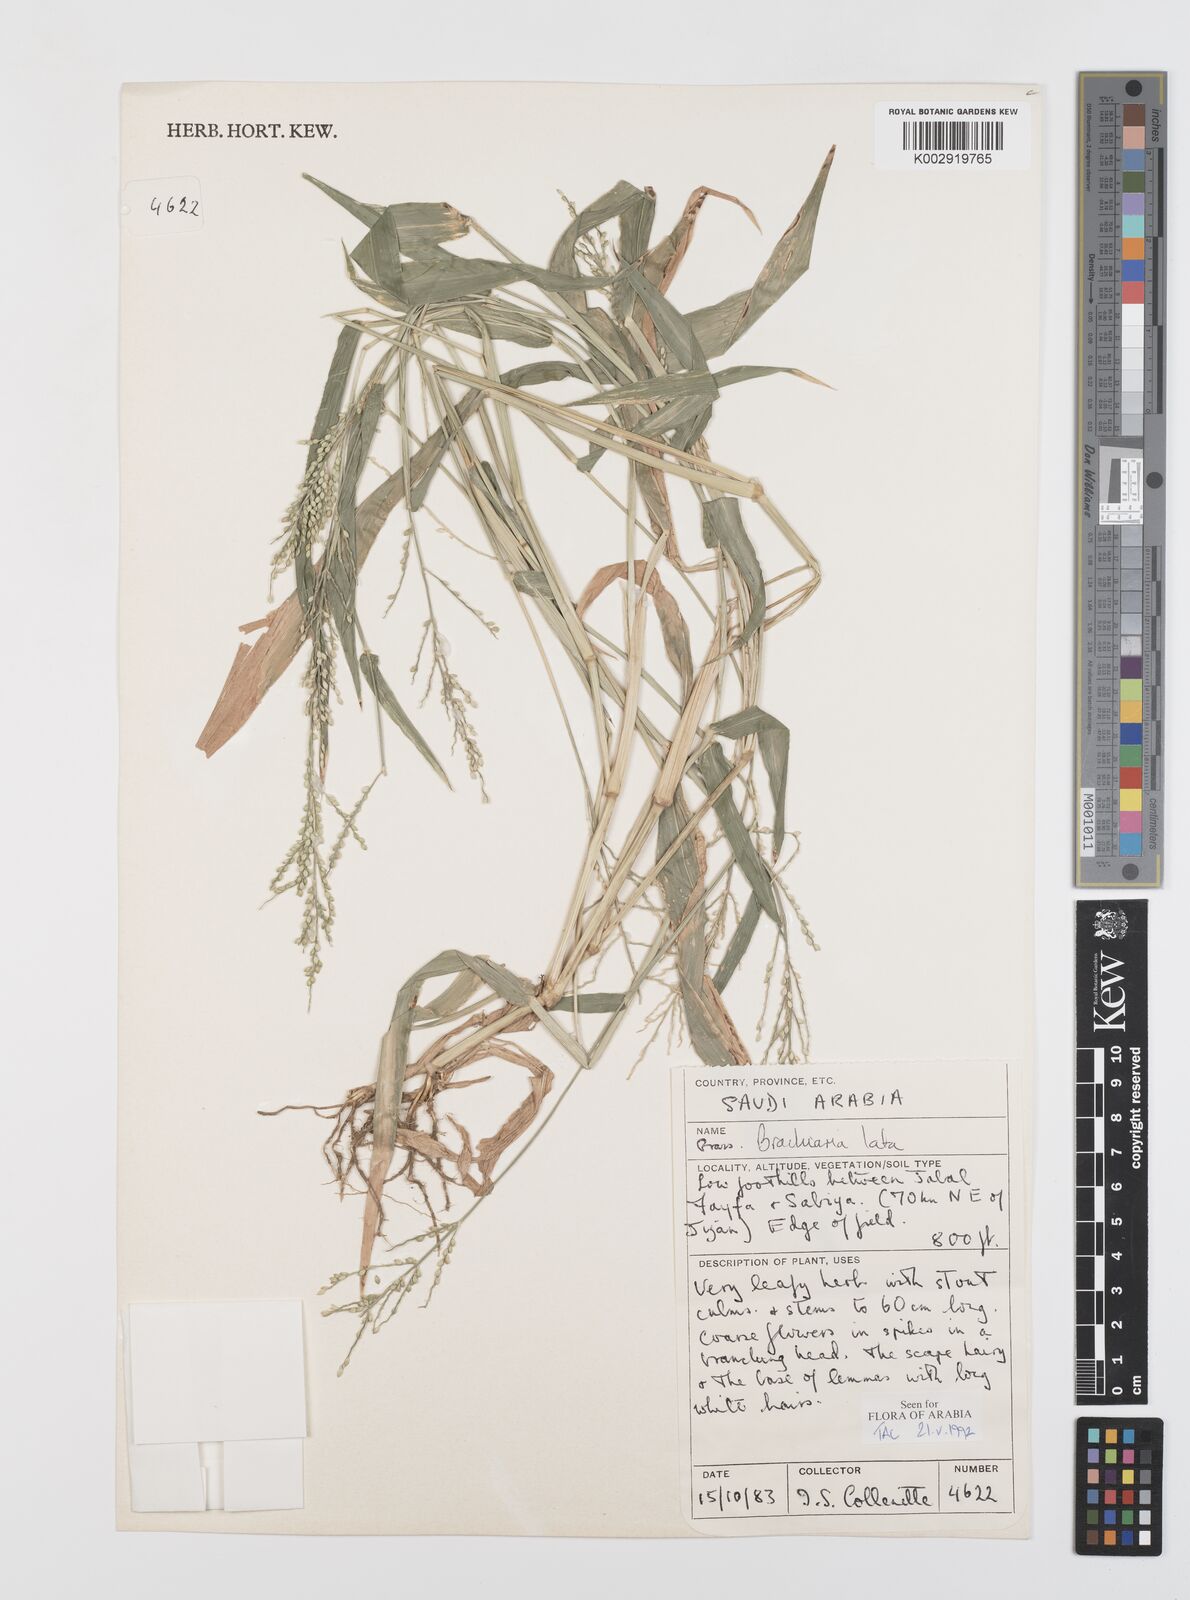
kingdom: Plantae
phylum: Tracheophyta
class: Liliopsida
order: Poales
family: Poaceae
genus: Urochloa
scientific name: Urochloa lata
